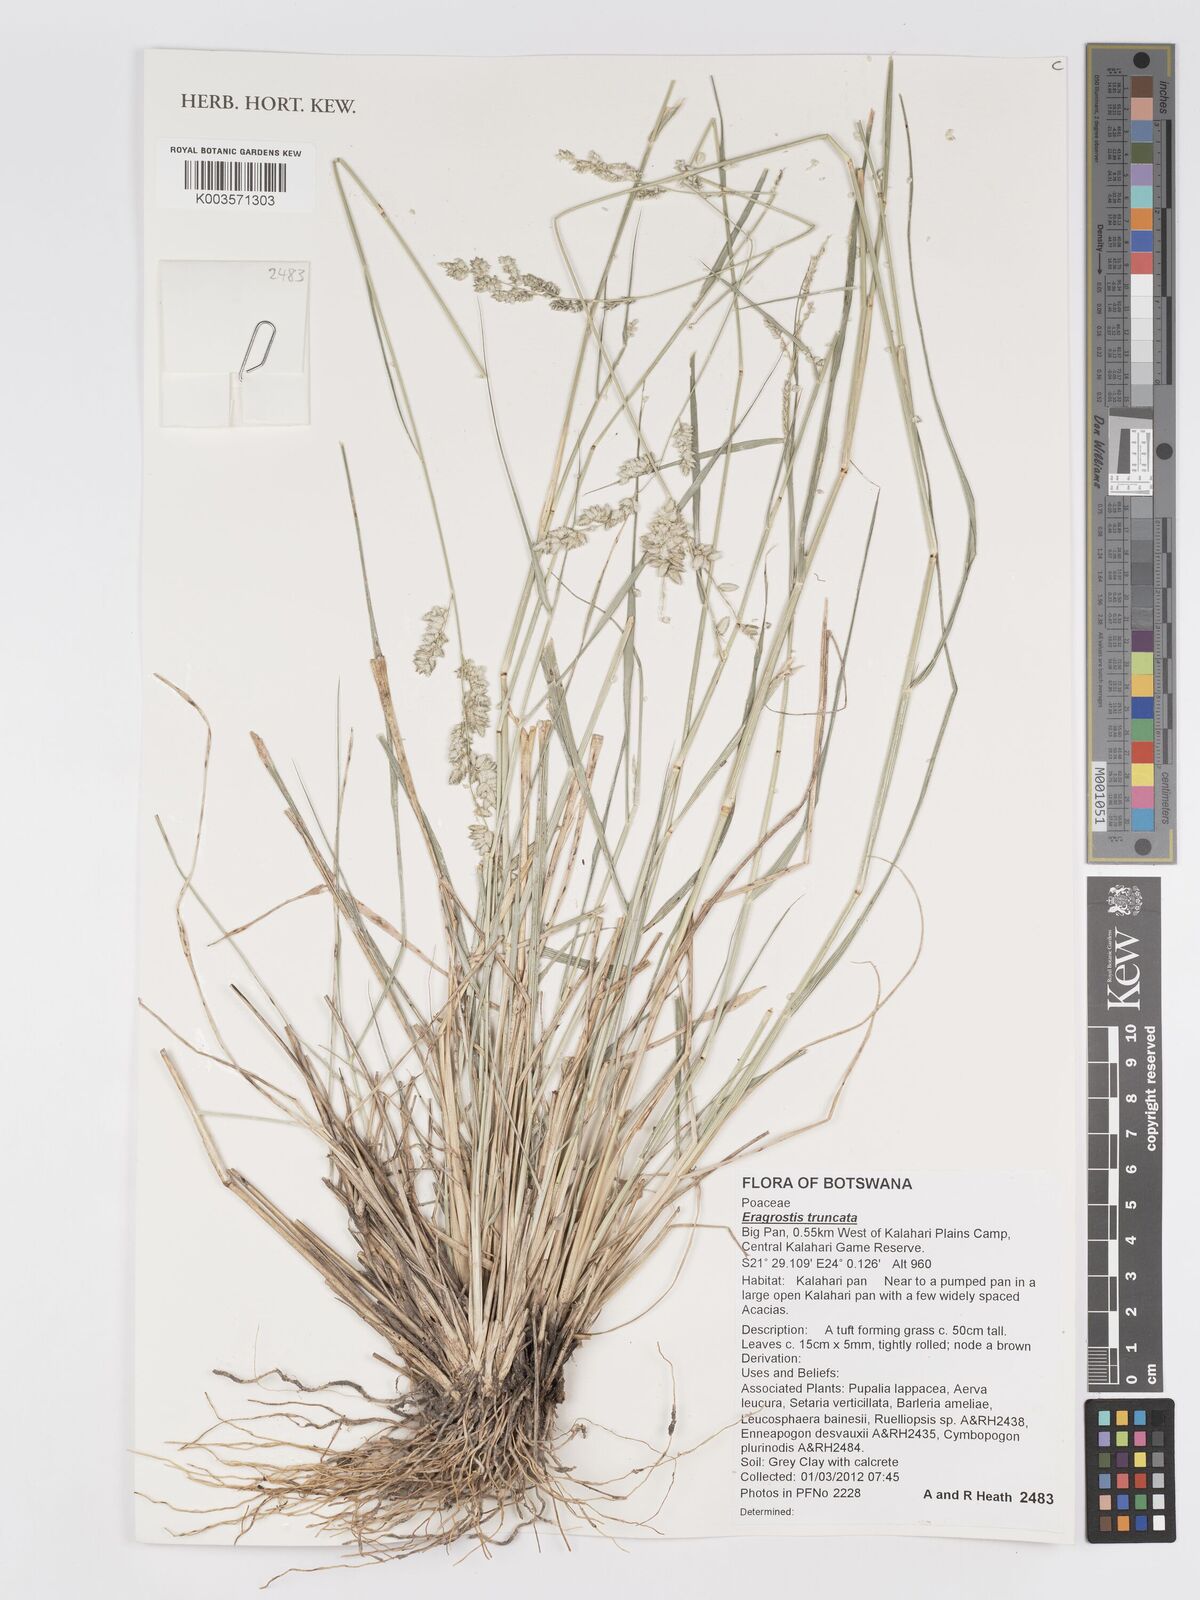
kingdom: Plantae
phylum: Tracheophyta
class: Liliopsida
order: Poales
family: Poaceae
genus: Eragrostis
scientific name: Eragrostis truncata
